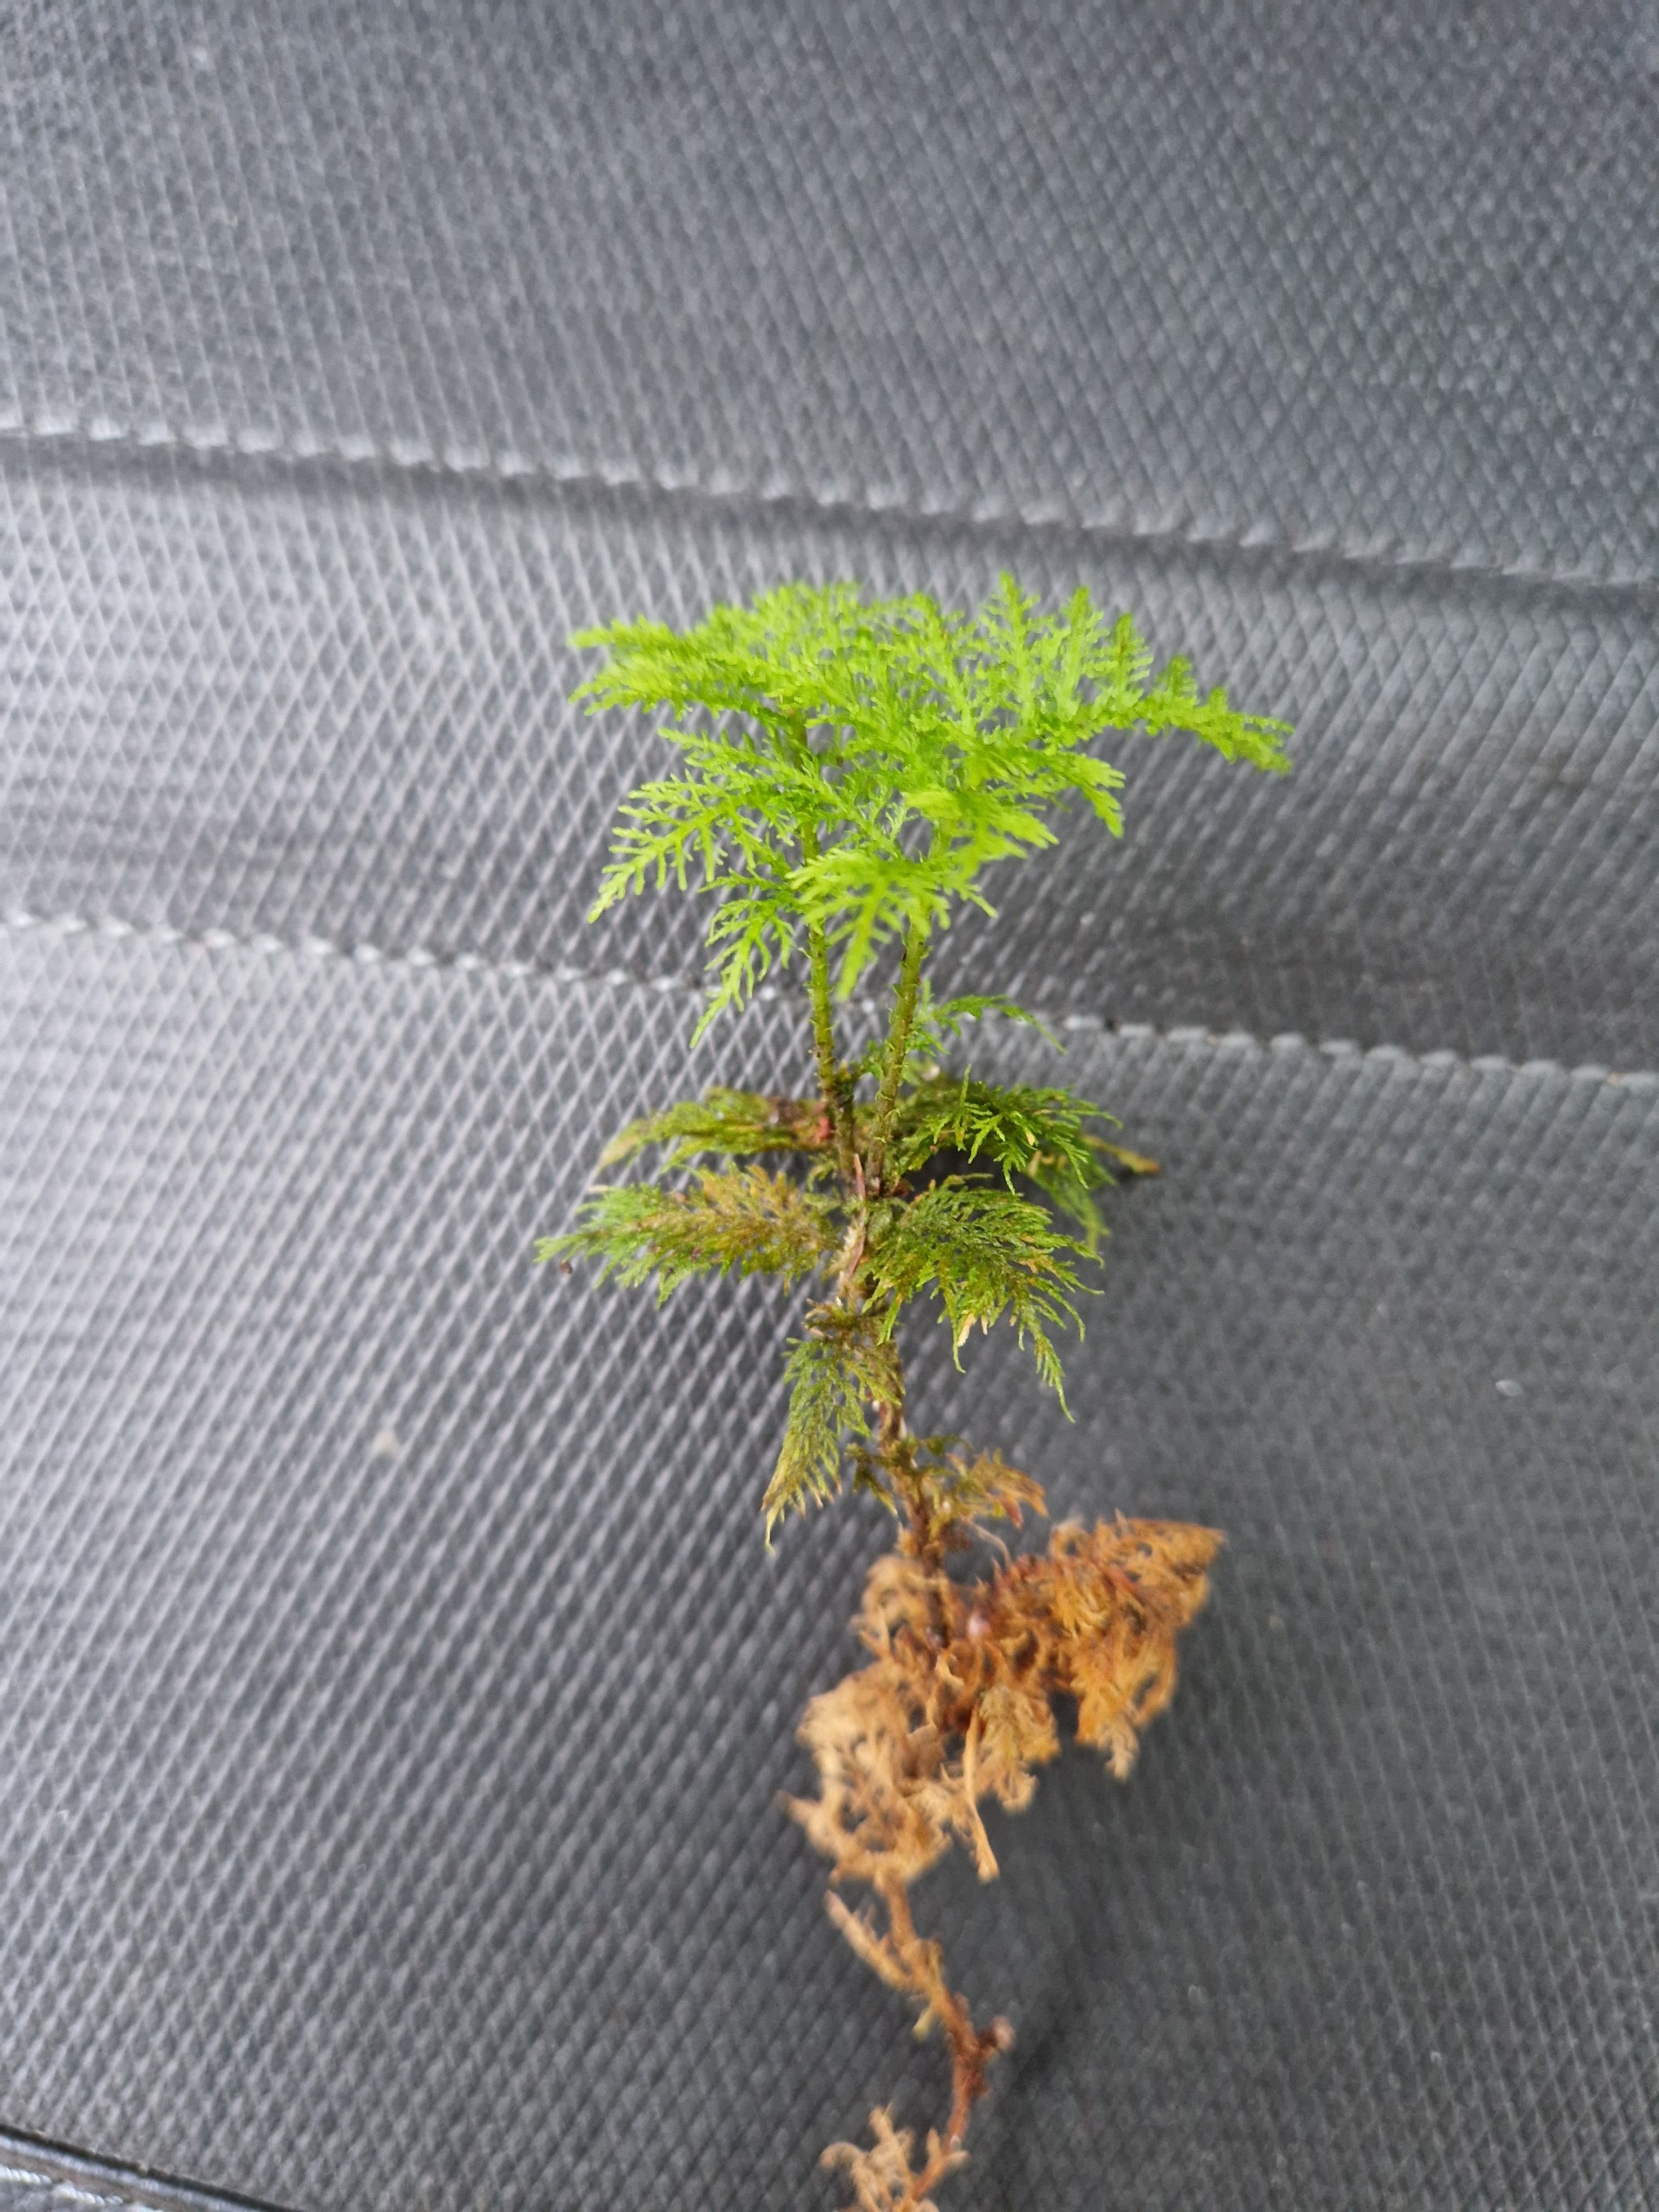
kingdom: Plantae
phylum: Bryophyta
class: Bryopsida
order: Hypnales
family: Thuidiaceae
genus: Thuidium
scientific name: Thuidium tamariscinum
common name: Pryd-bregnemos
